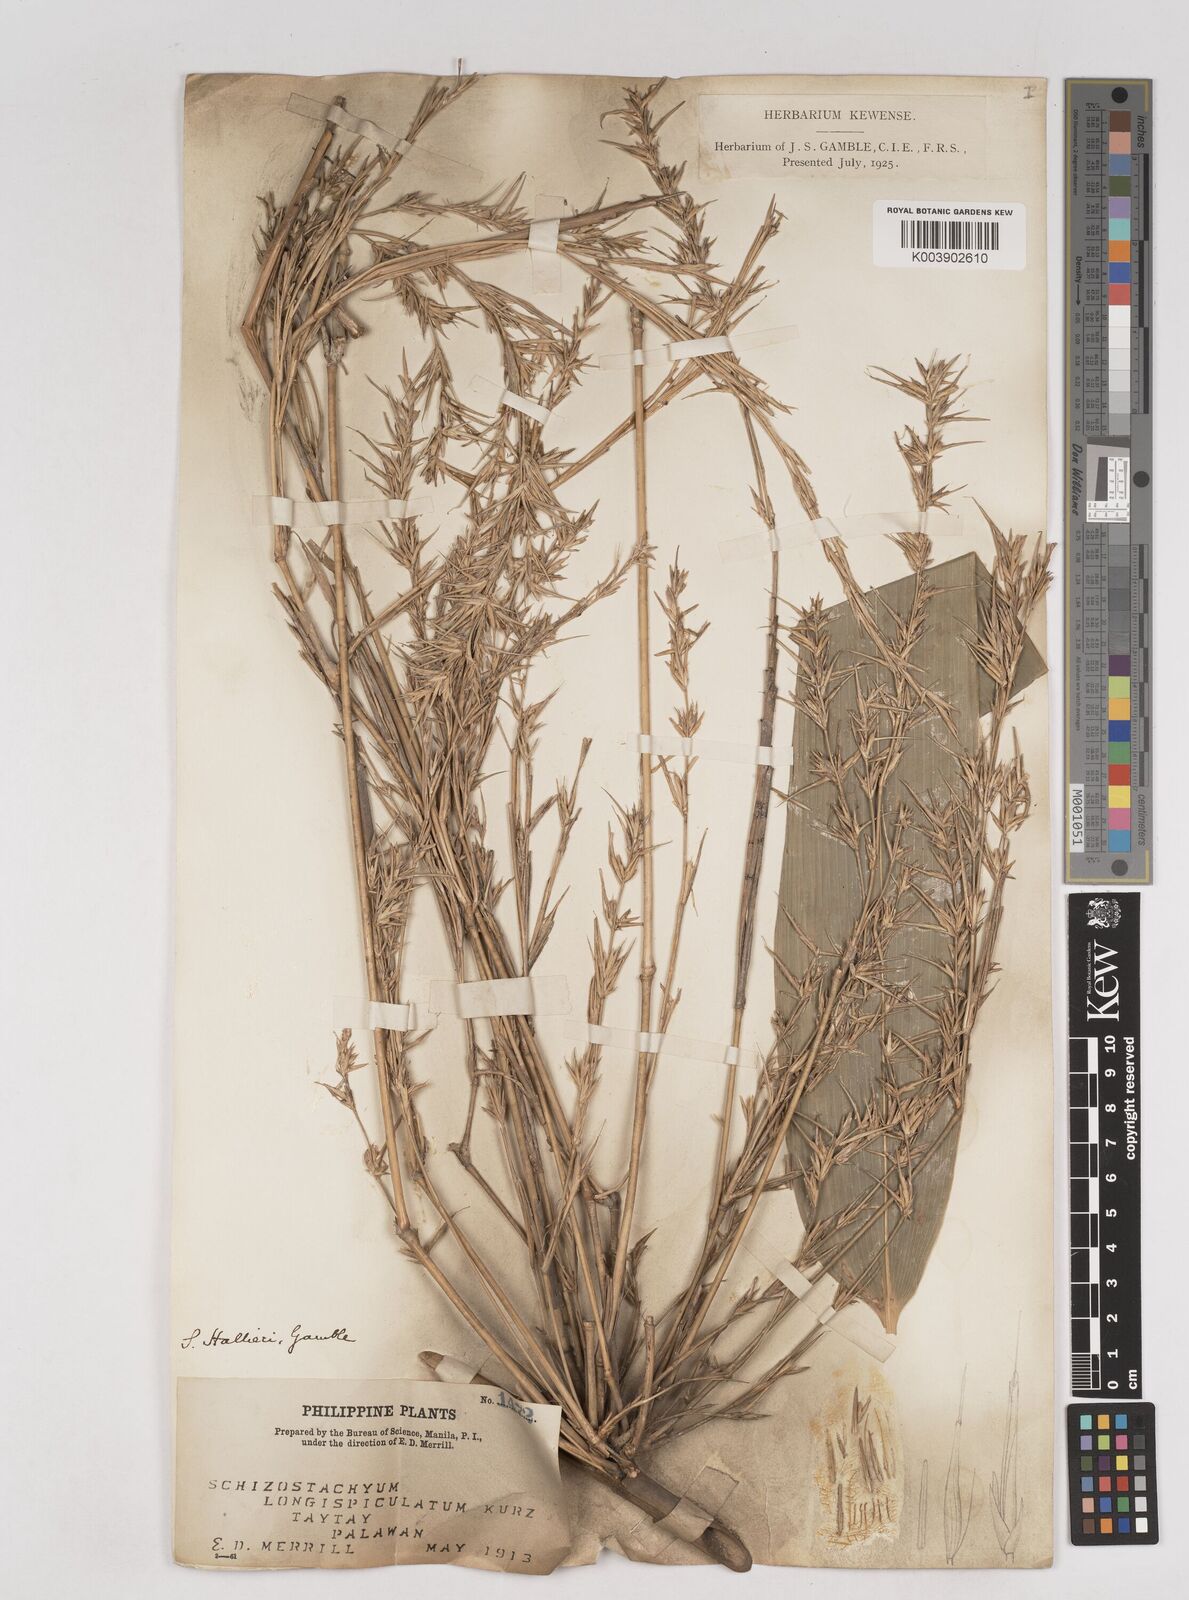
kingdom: Plantae
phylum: Tracheophyta
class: Liliopsida
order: Poales
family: Poaceae
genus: Schizostachyum
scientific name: Schizostachyum lima
